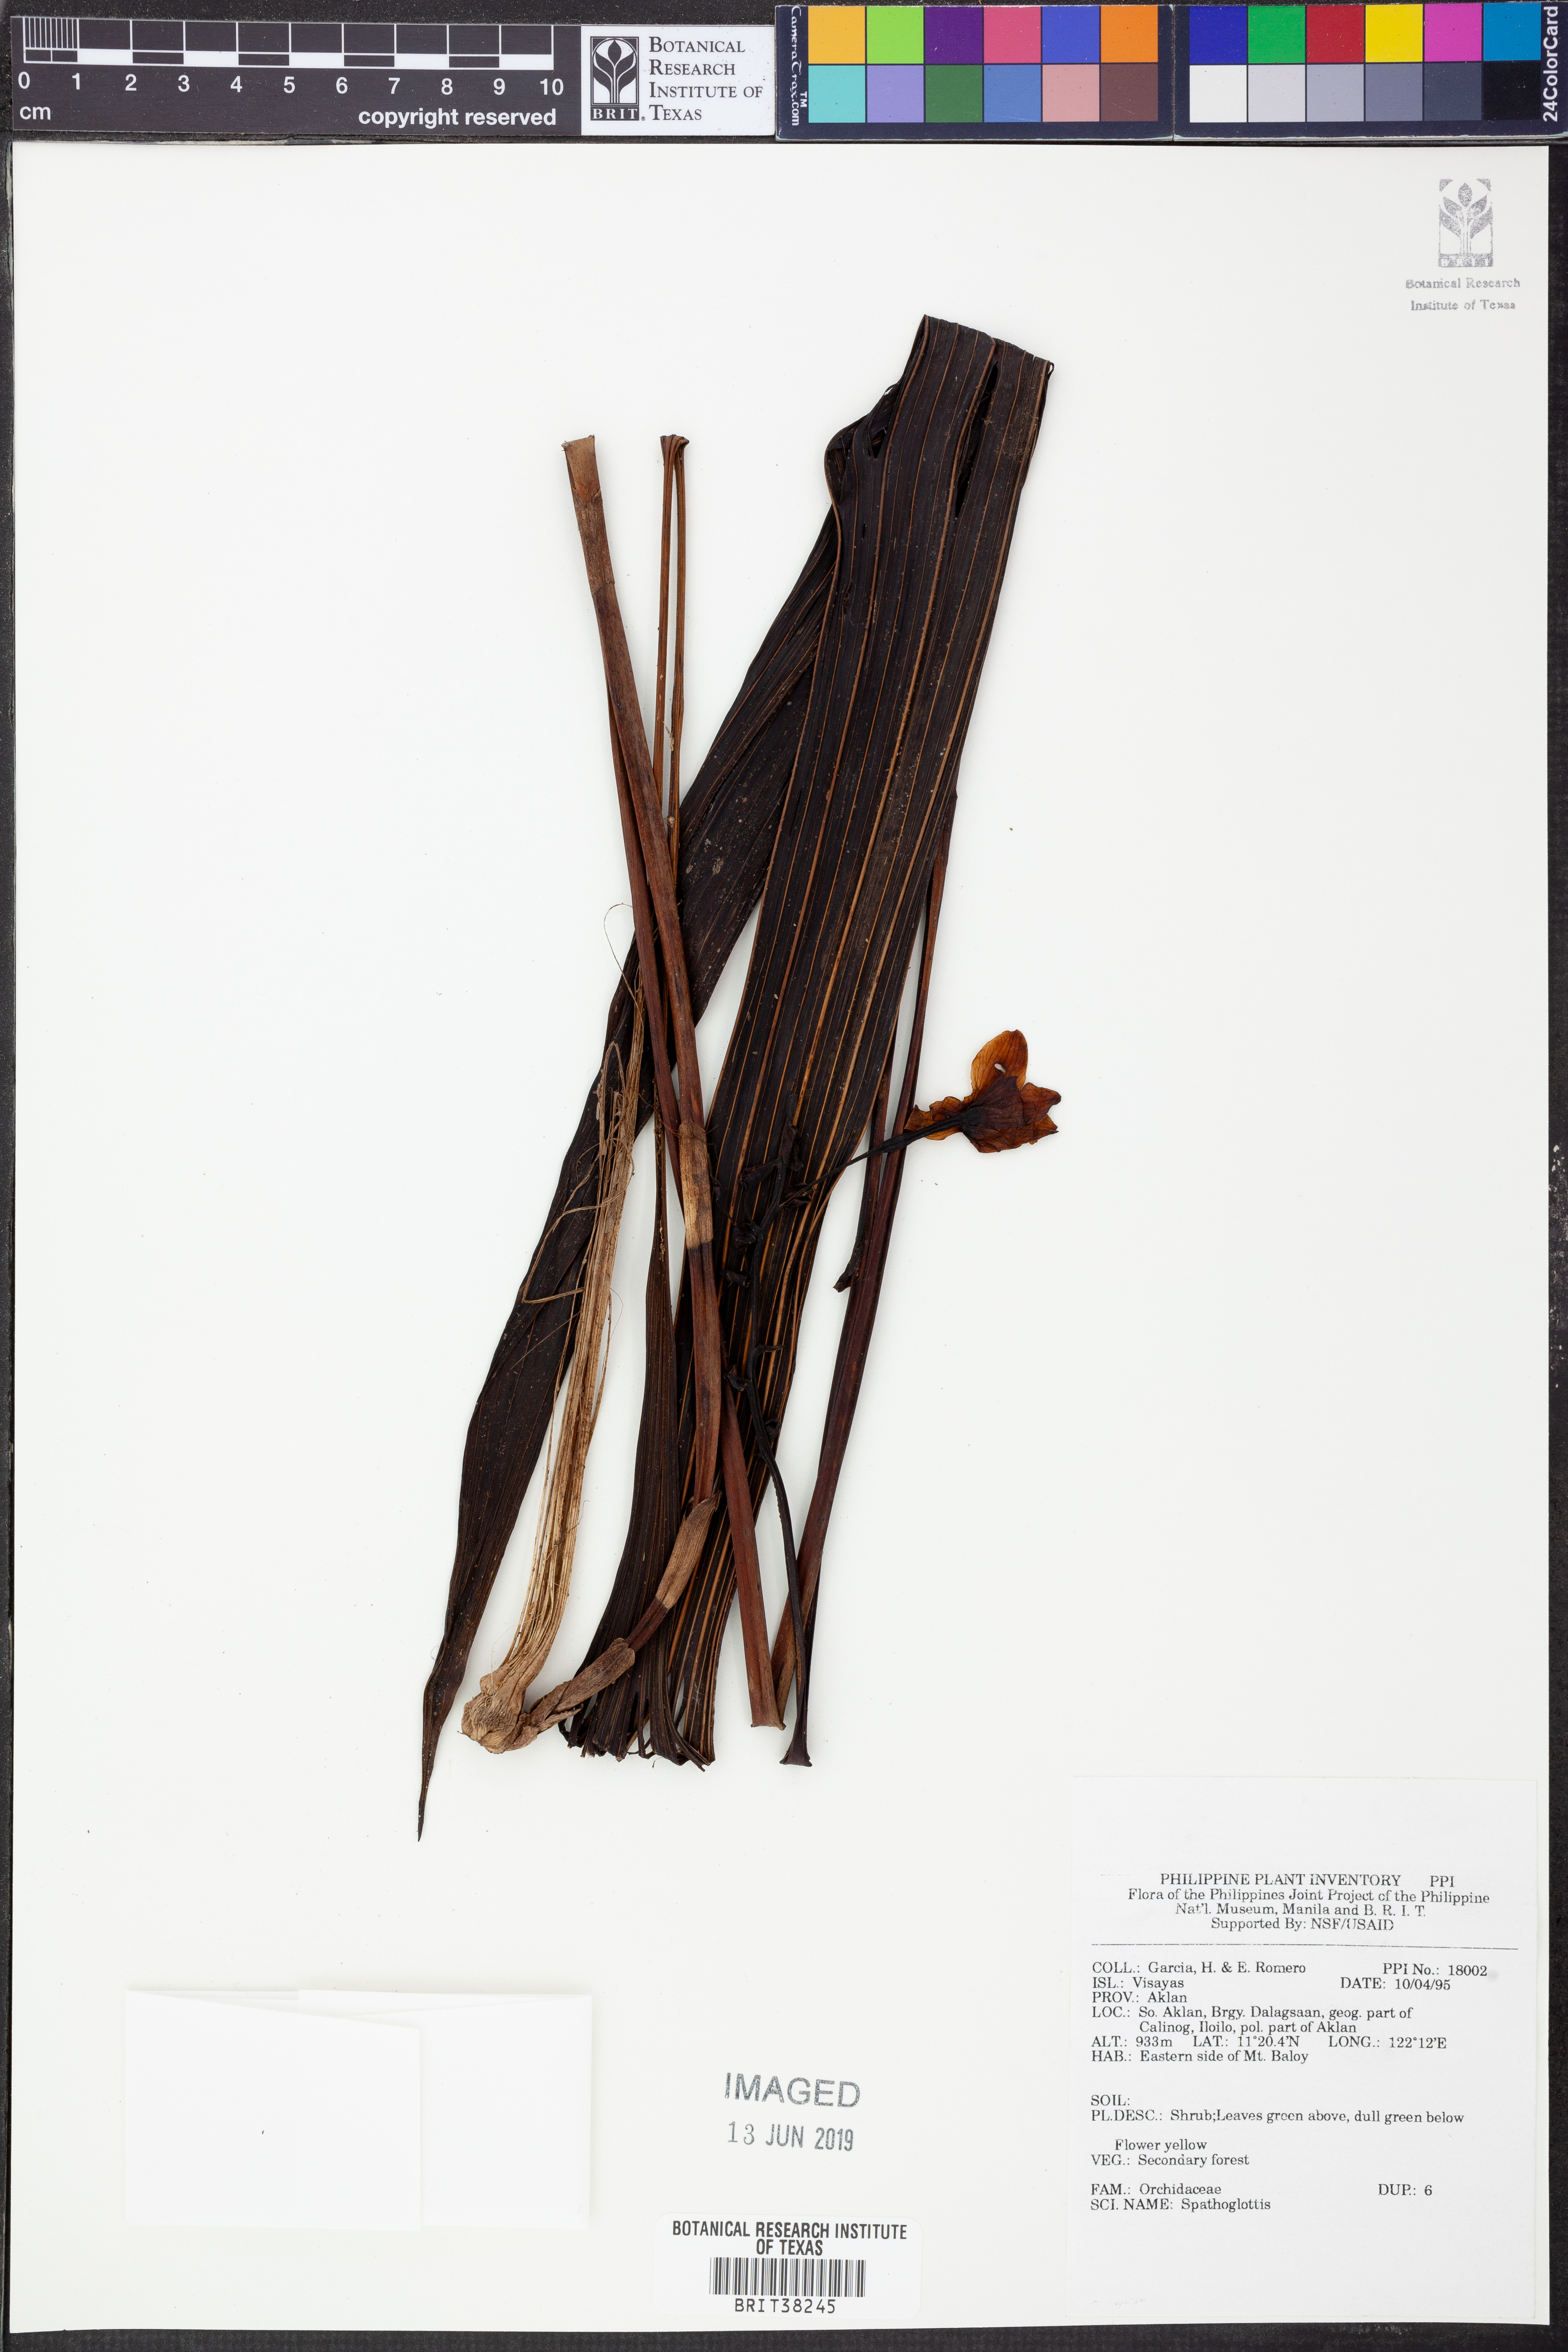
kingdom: Plantae
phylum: Tracheophyta
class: Liliopsida
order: Asparagales
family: Orchidaceae
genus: Spathoglottis
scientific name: Spathoglottis
